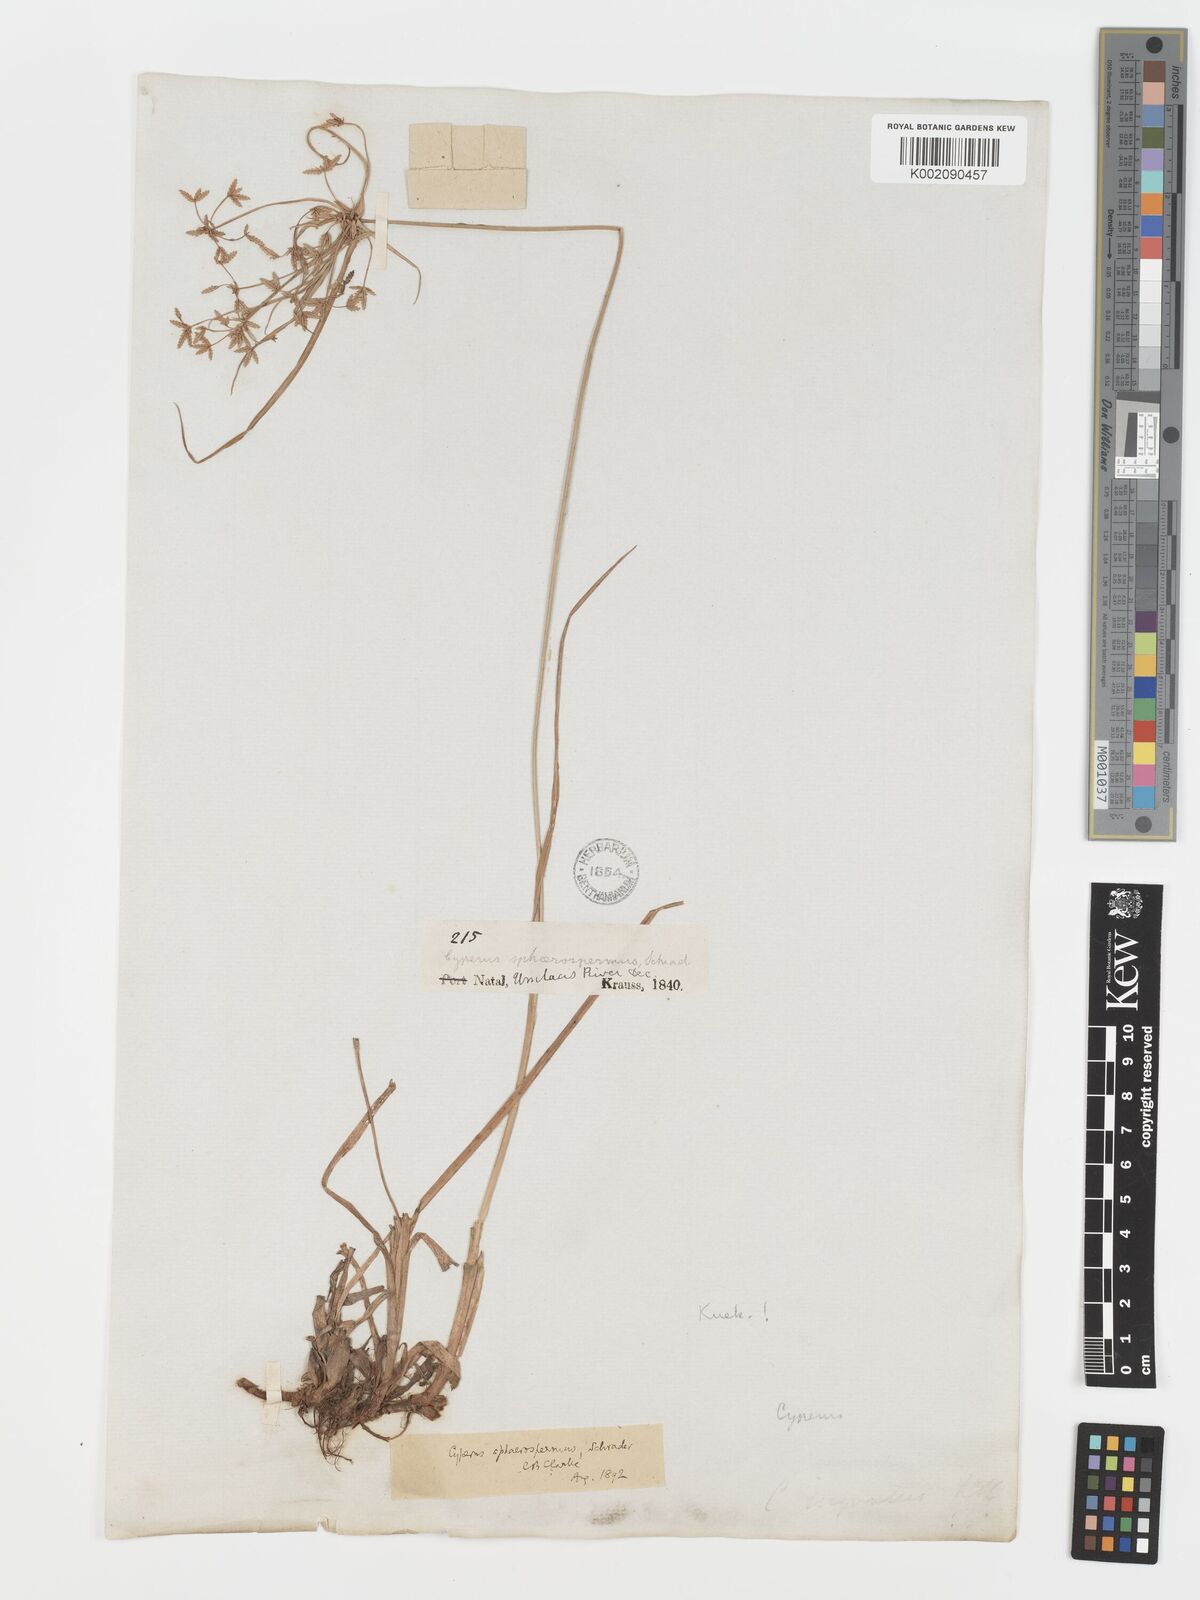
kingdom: Plantae
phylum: Tracheophyta
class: Liliopsida
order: Poales
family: Cyperaceae
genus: Cyperus
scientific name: Cyperus sphaerospermus
